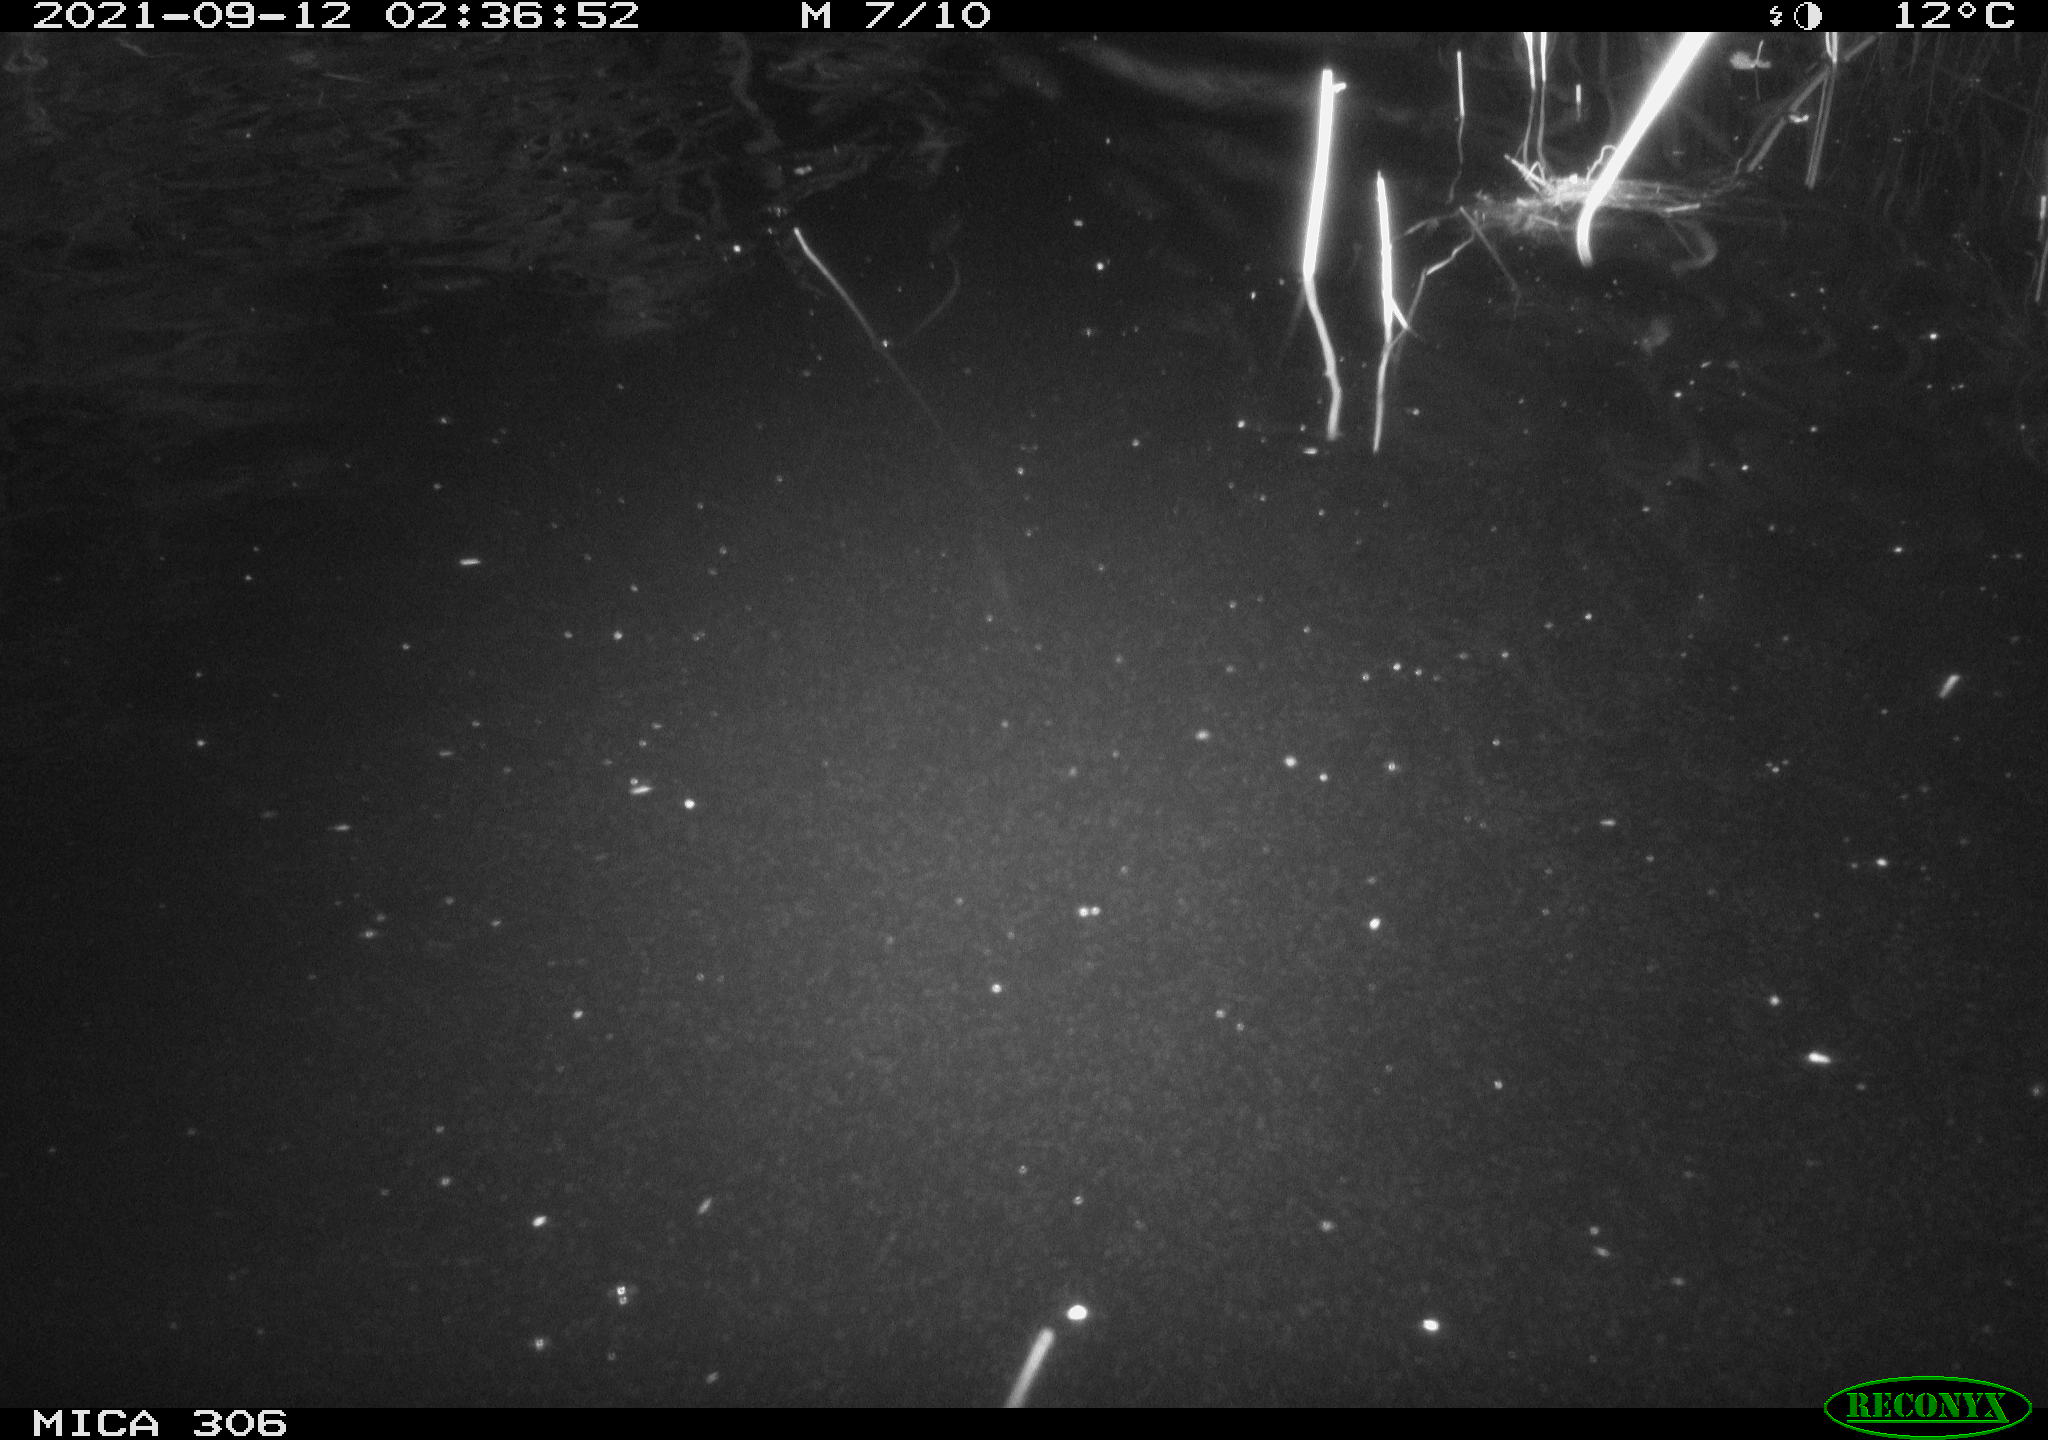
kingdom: Animalia
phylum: Chordata
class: Mammalia
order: Rodentia
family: Cricetidae
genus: Ondatra
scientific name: Ondatra zibethicus
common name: Muskrat
